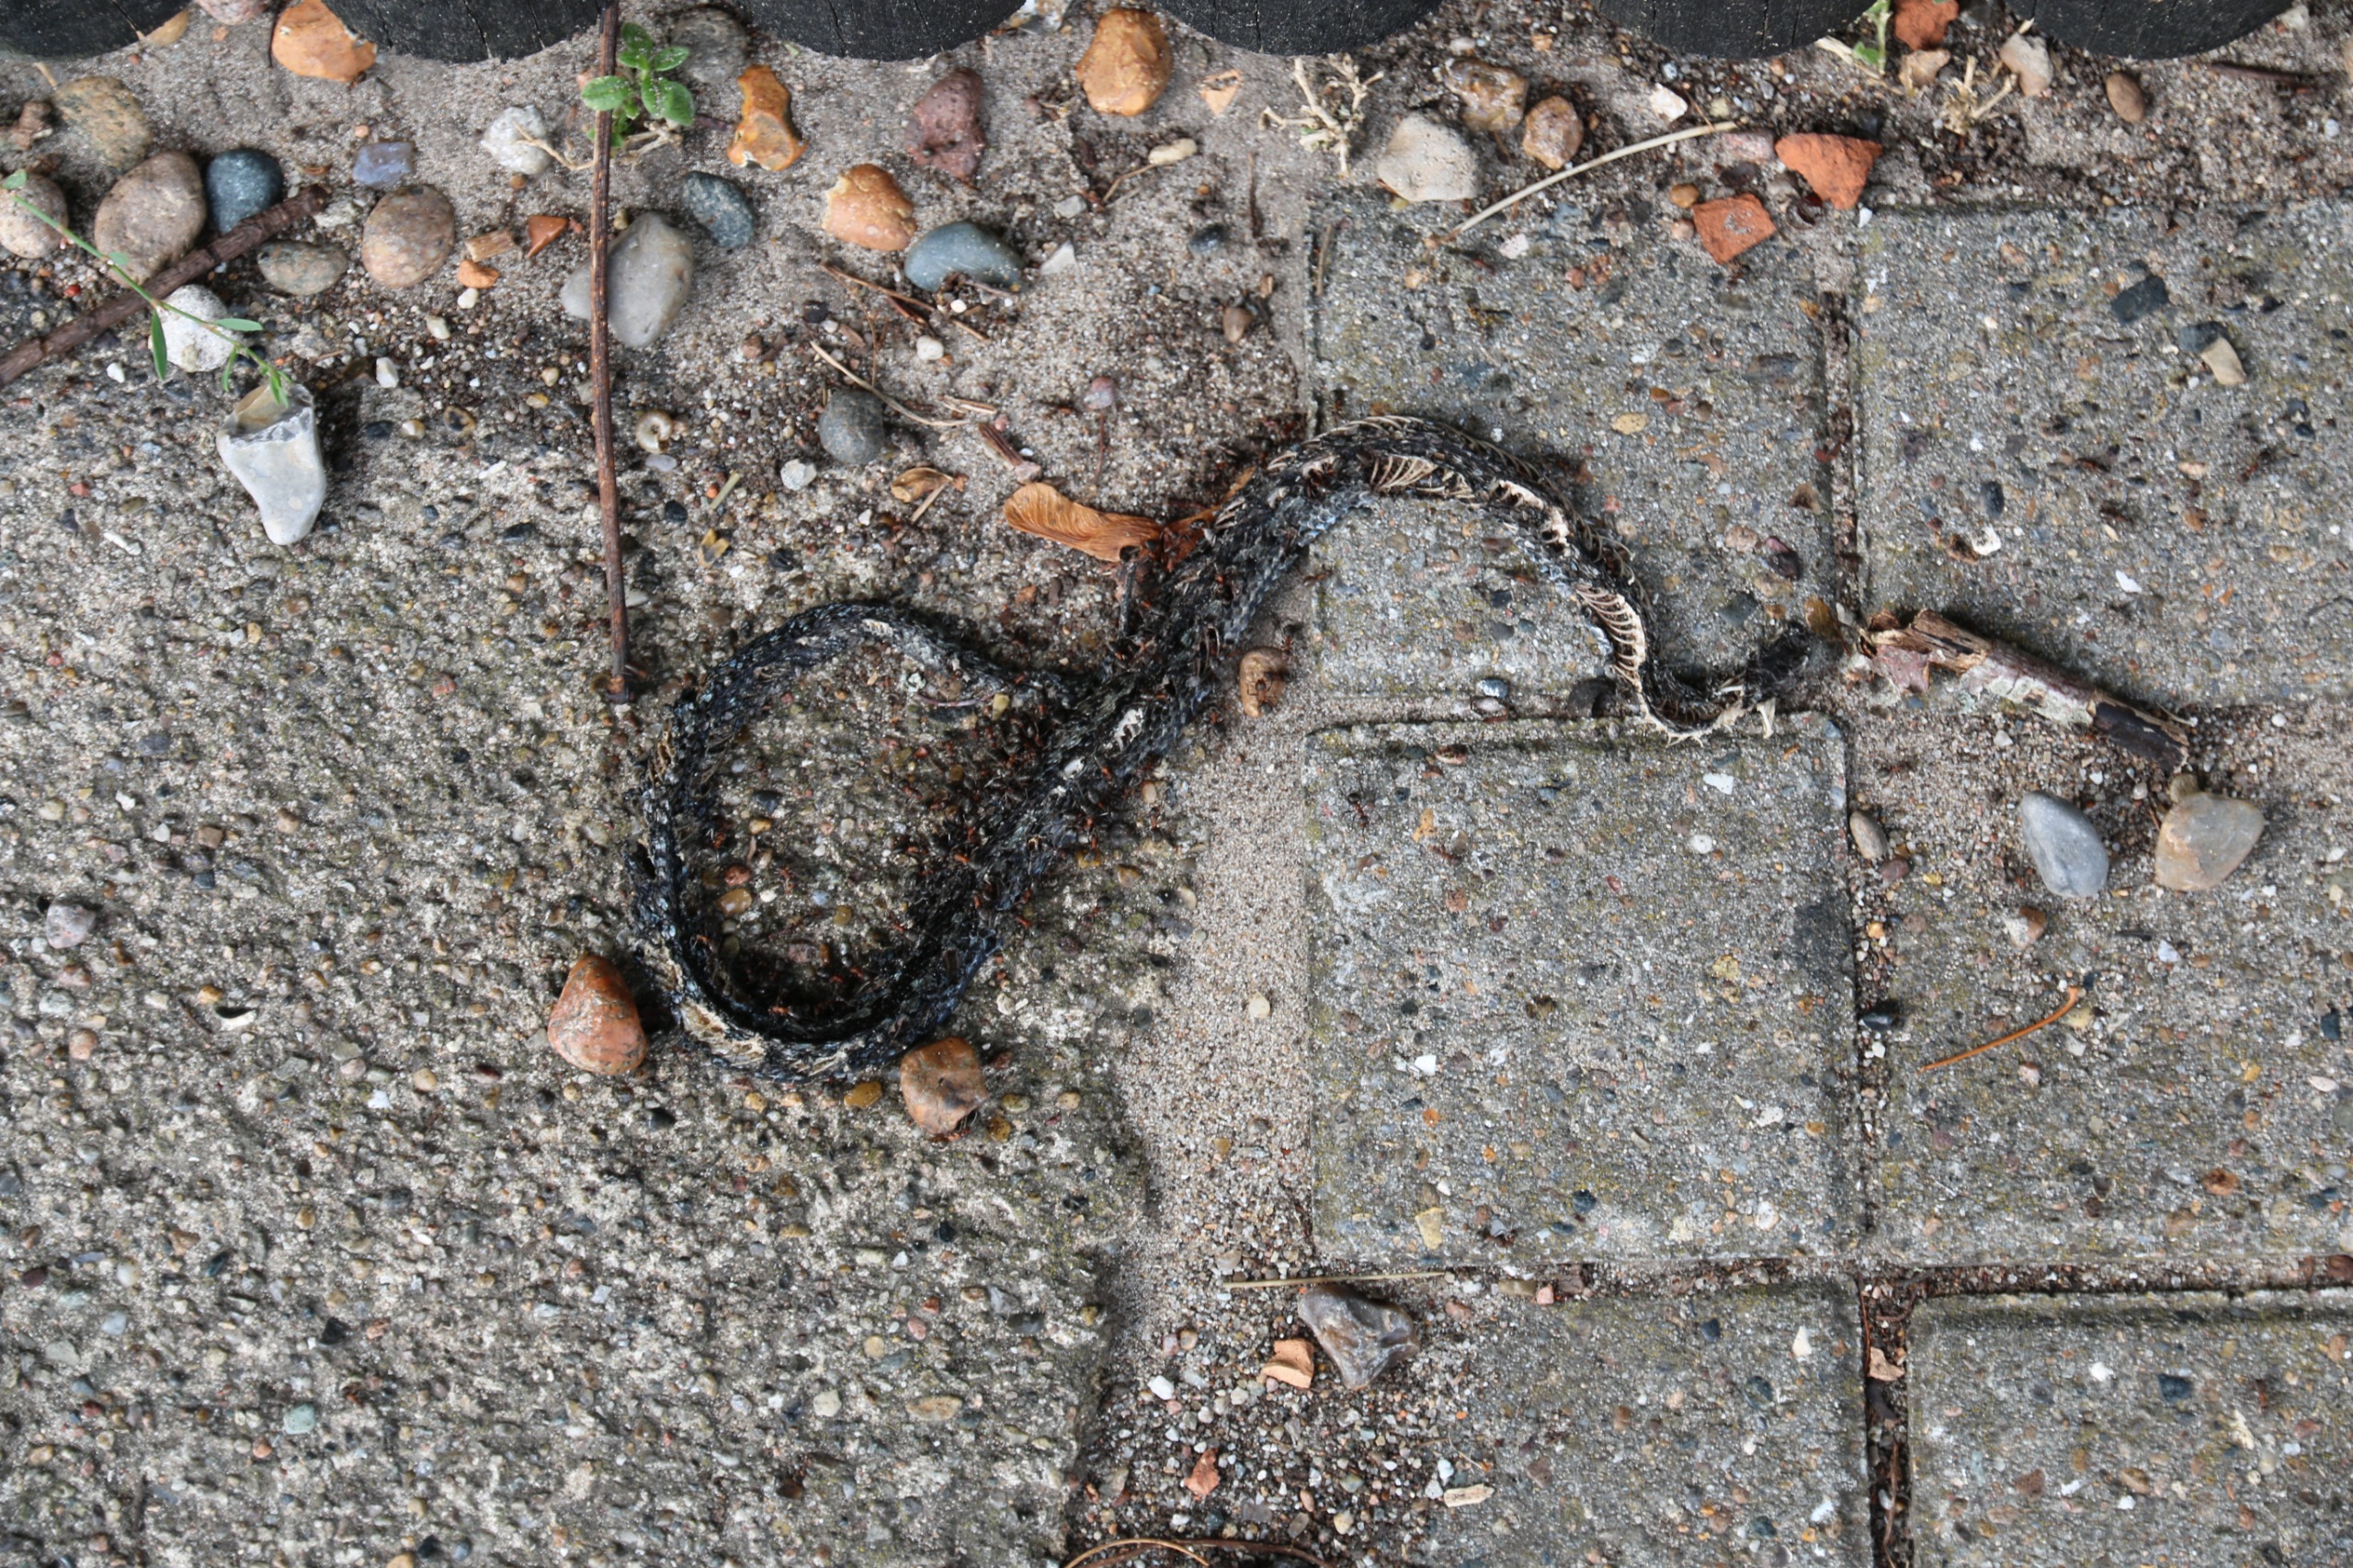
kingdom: Animalia
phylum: Chordata
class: Squamata
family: Viperidae
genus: Vipera
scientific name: Vipera berus
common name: Hugorm
